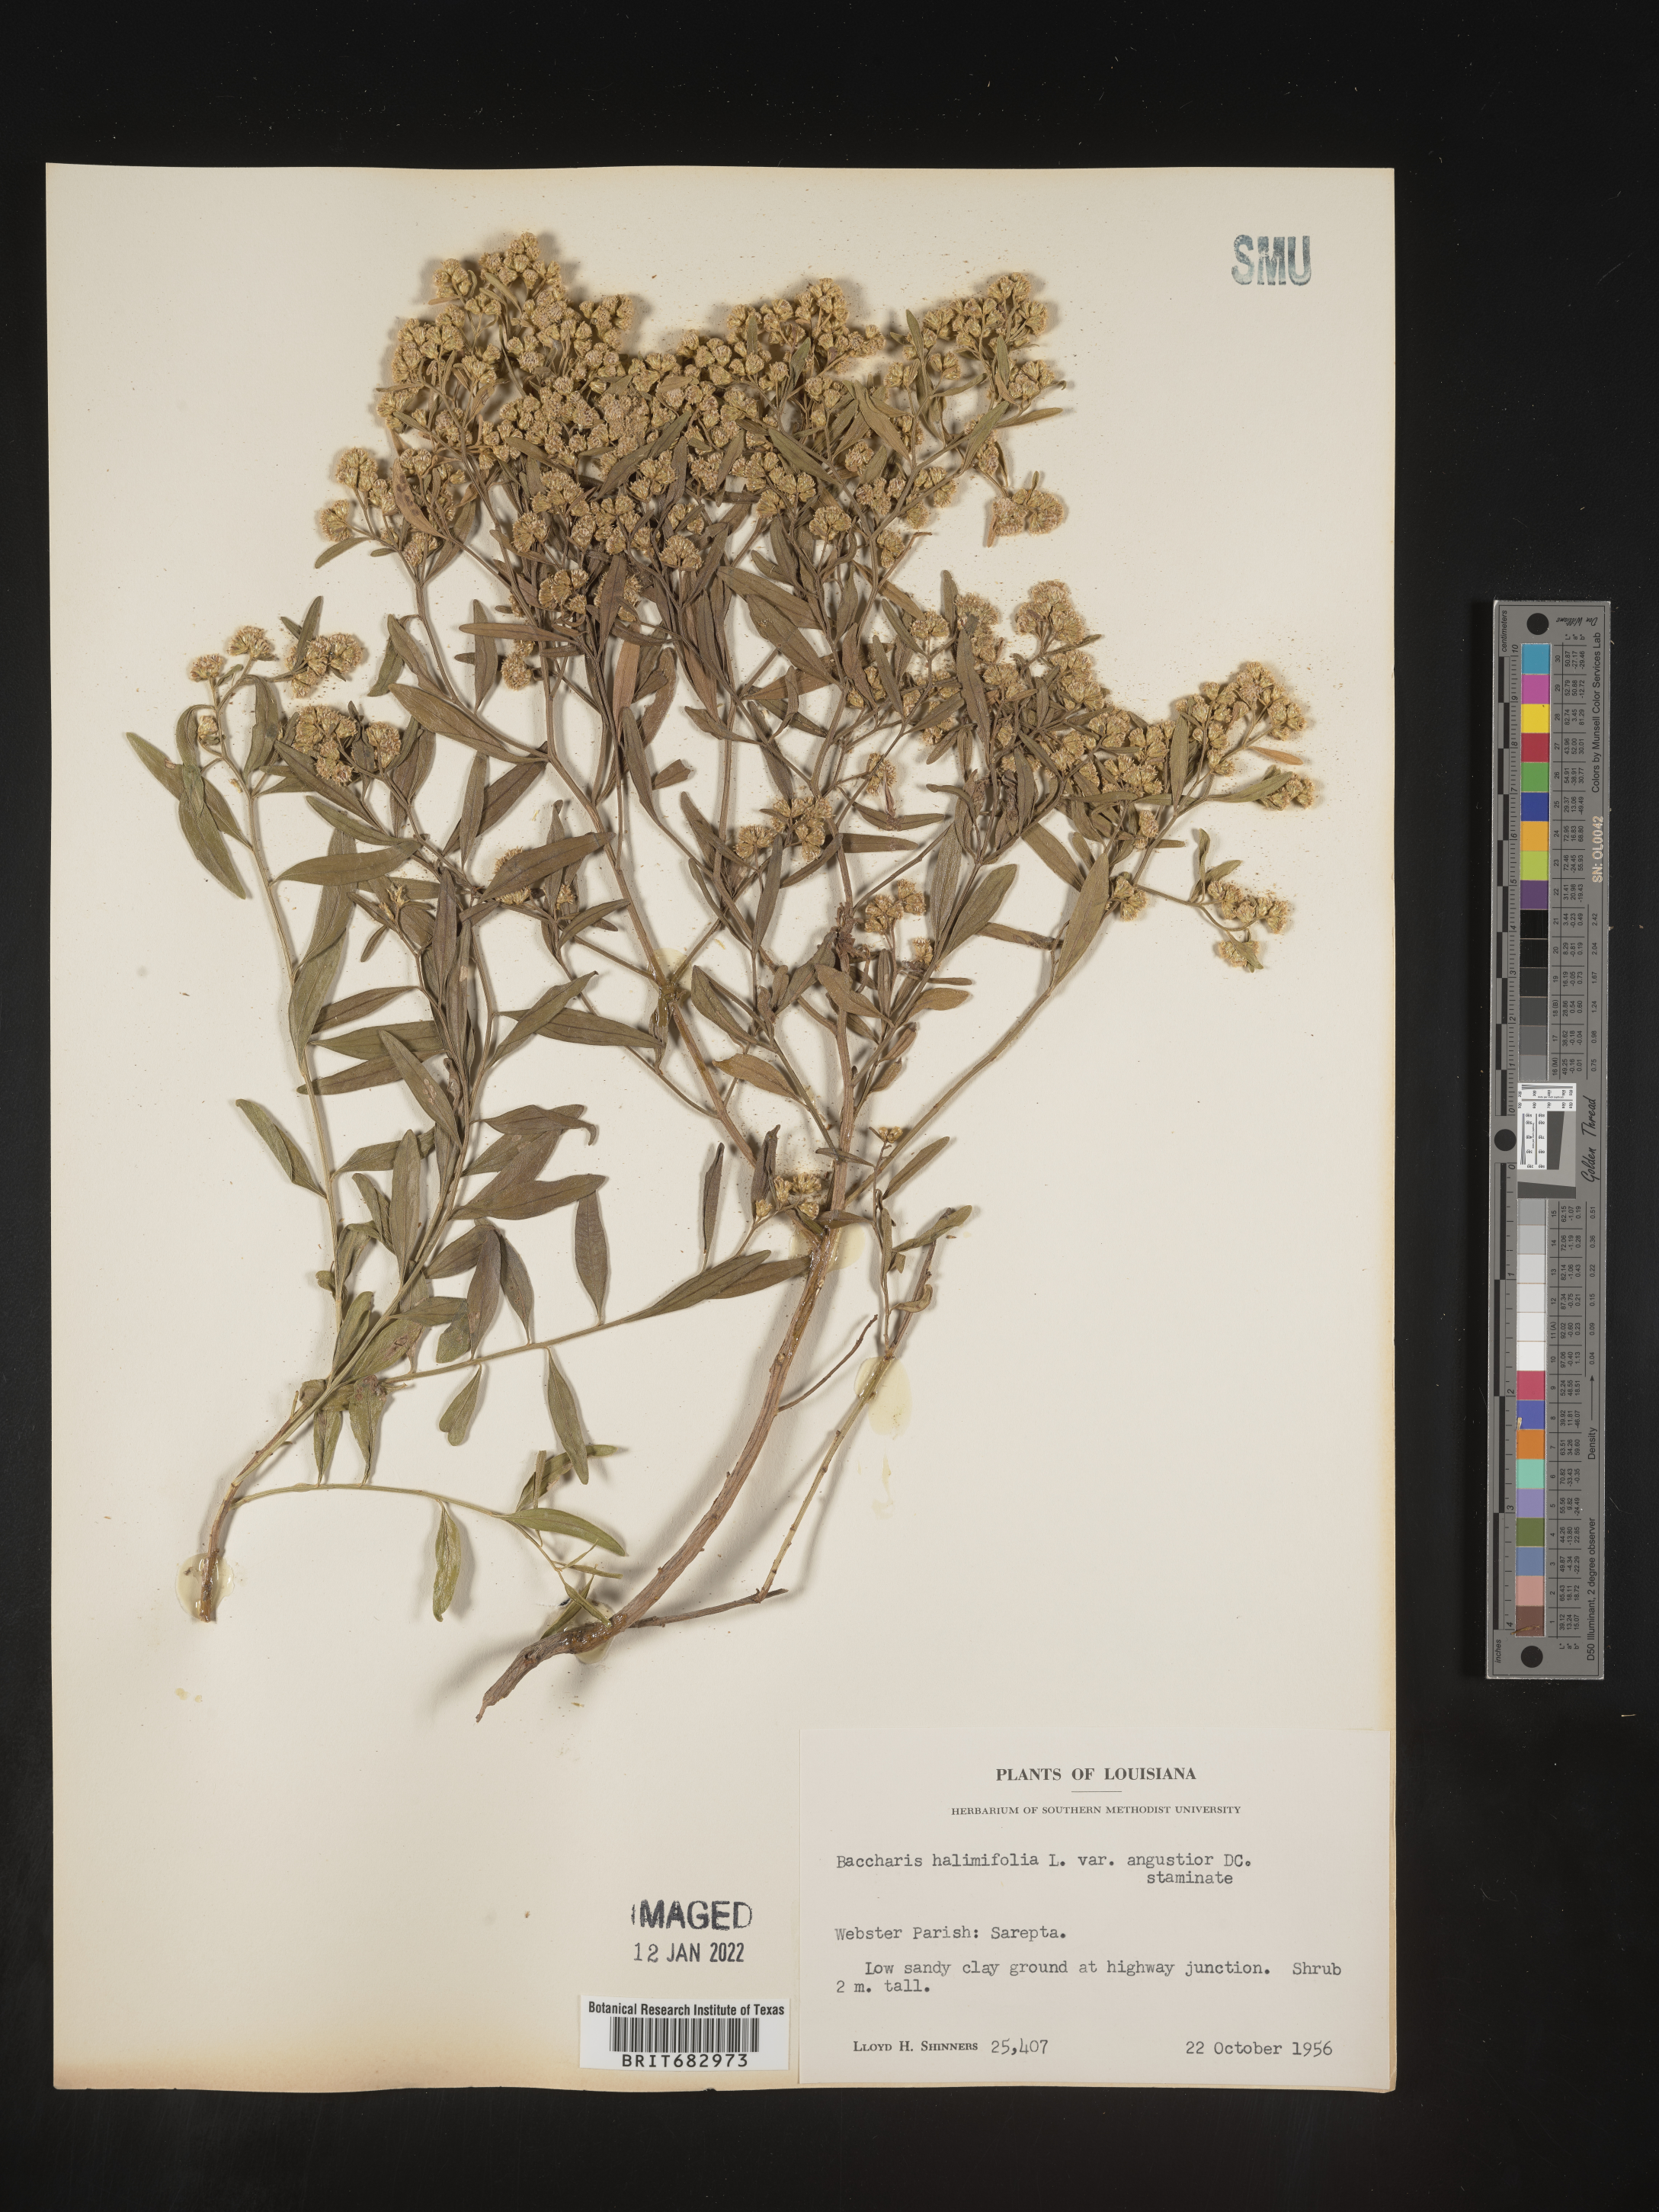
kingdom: Plantae
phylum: Tracheophyta
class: Magnoliopsida
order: Asterales
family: Asteraceae
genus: Nidorella
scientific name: Nidorella ivifolia
